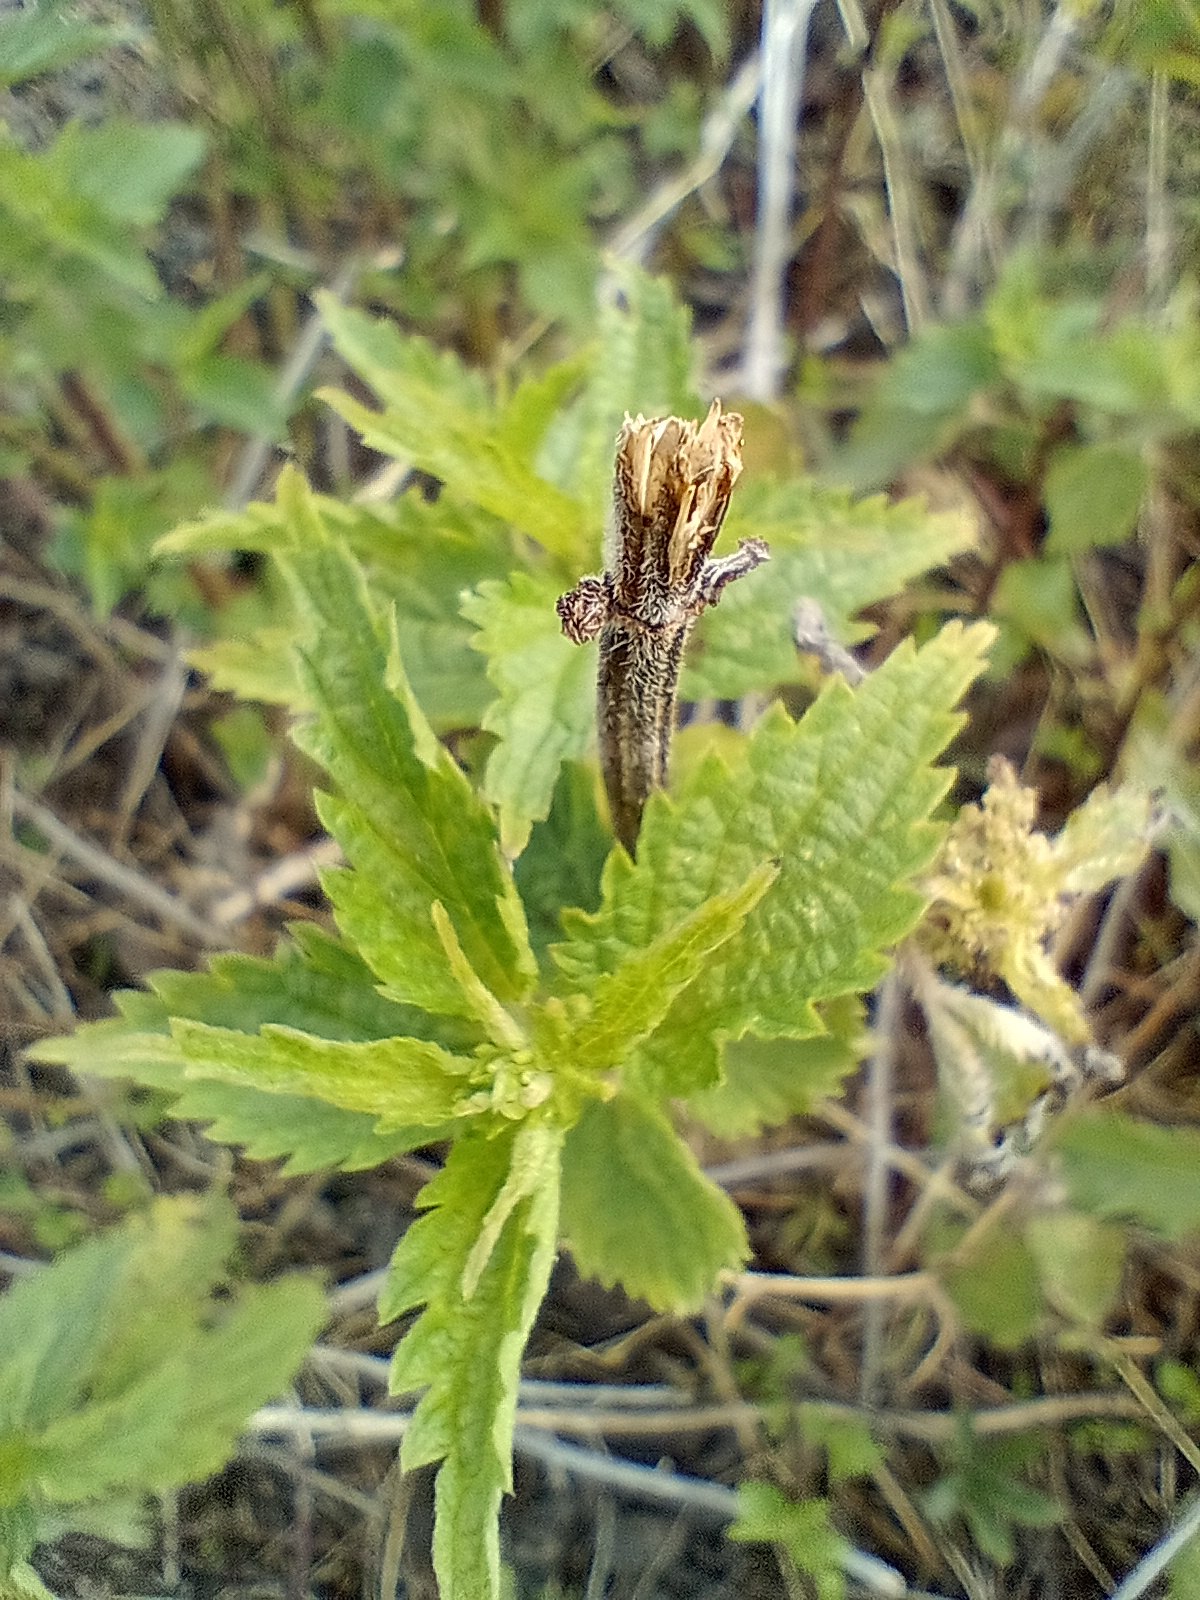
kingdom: Plantae
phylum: Tracheophyta
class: Magnoliopsida
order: Rosales
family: Urticaceae
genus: Urtica
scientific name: Urtica dioica
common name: Stor nælde
